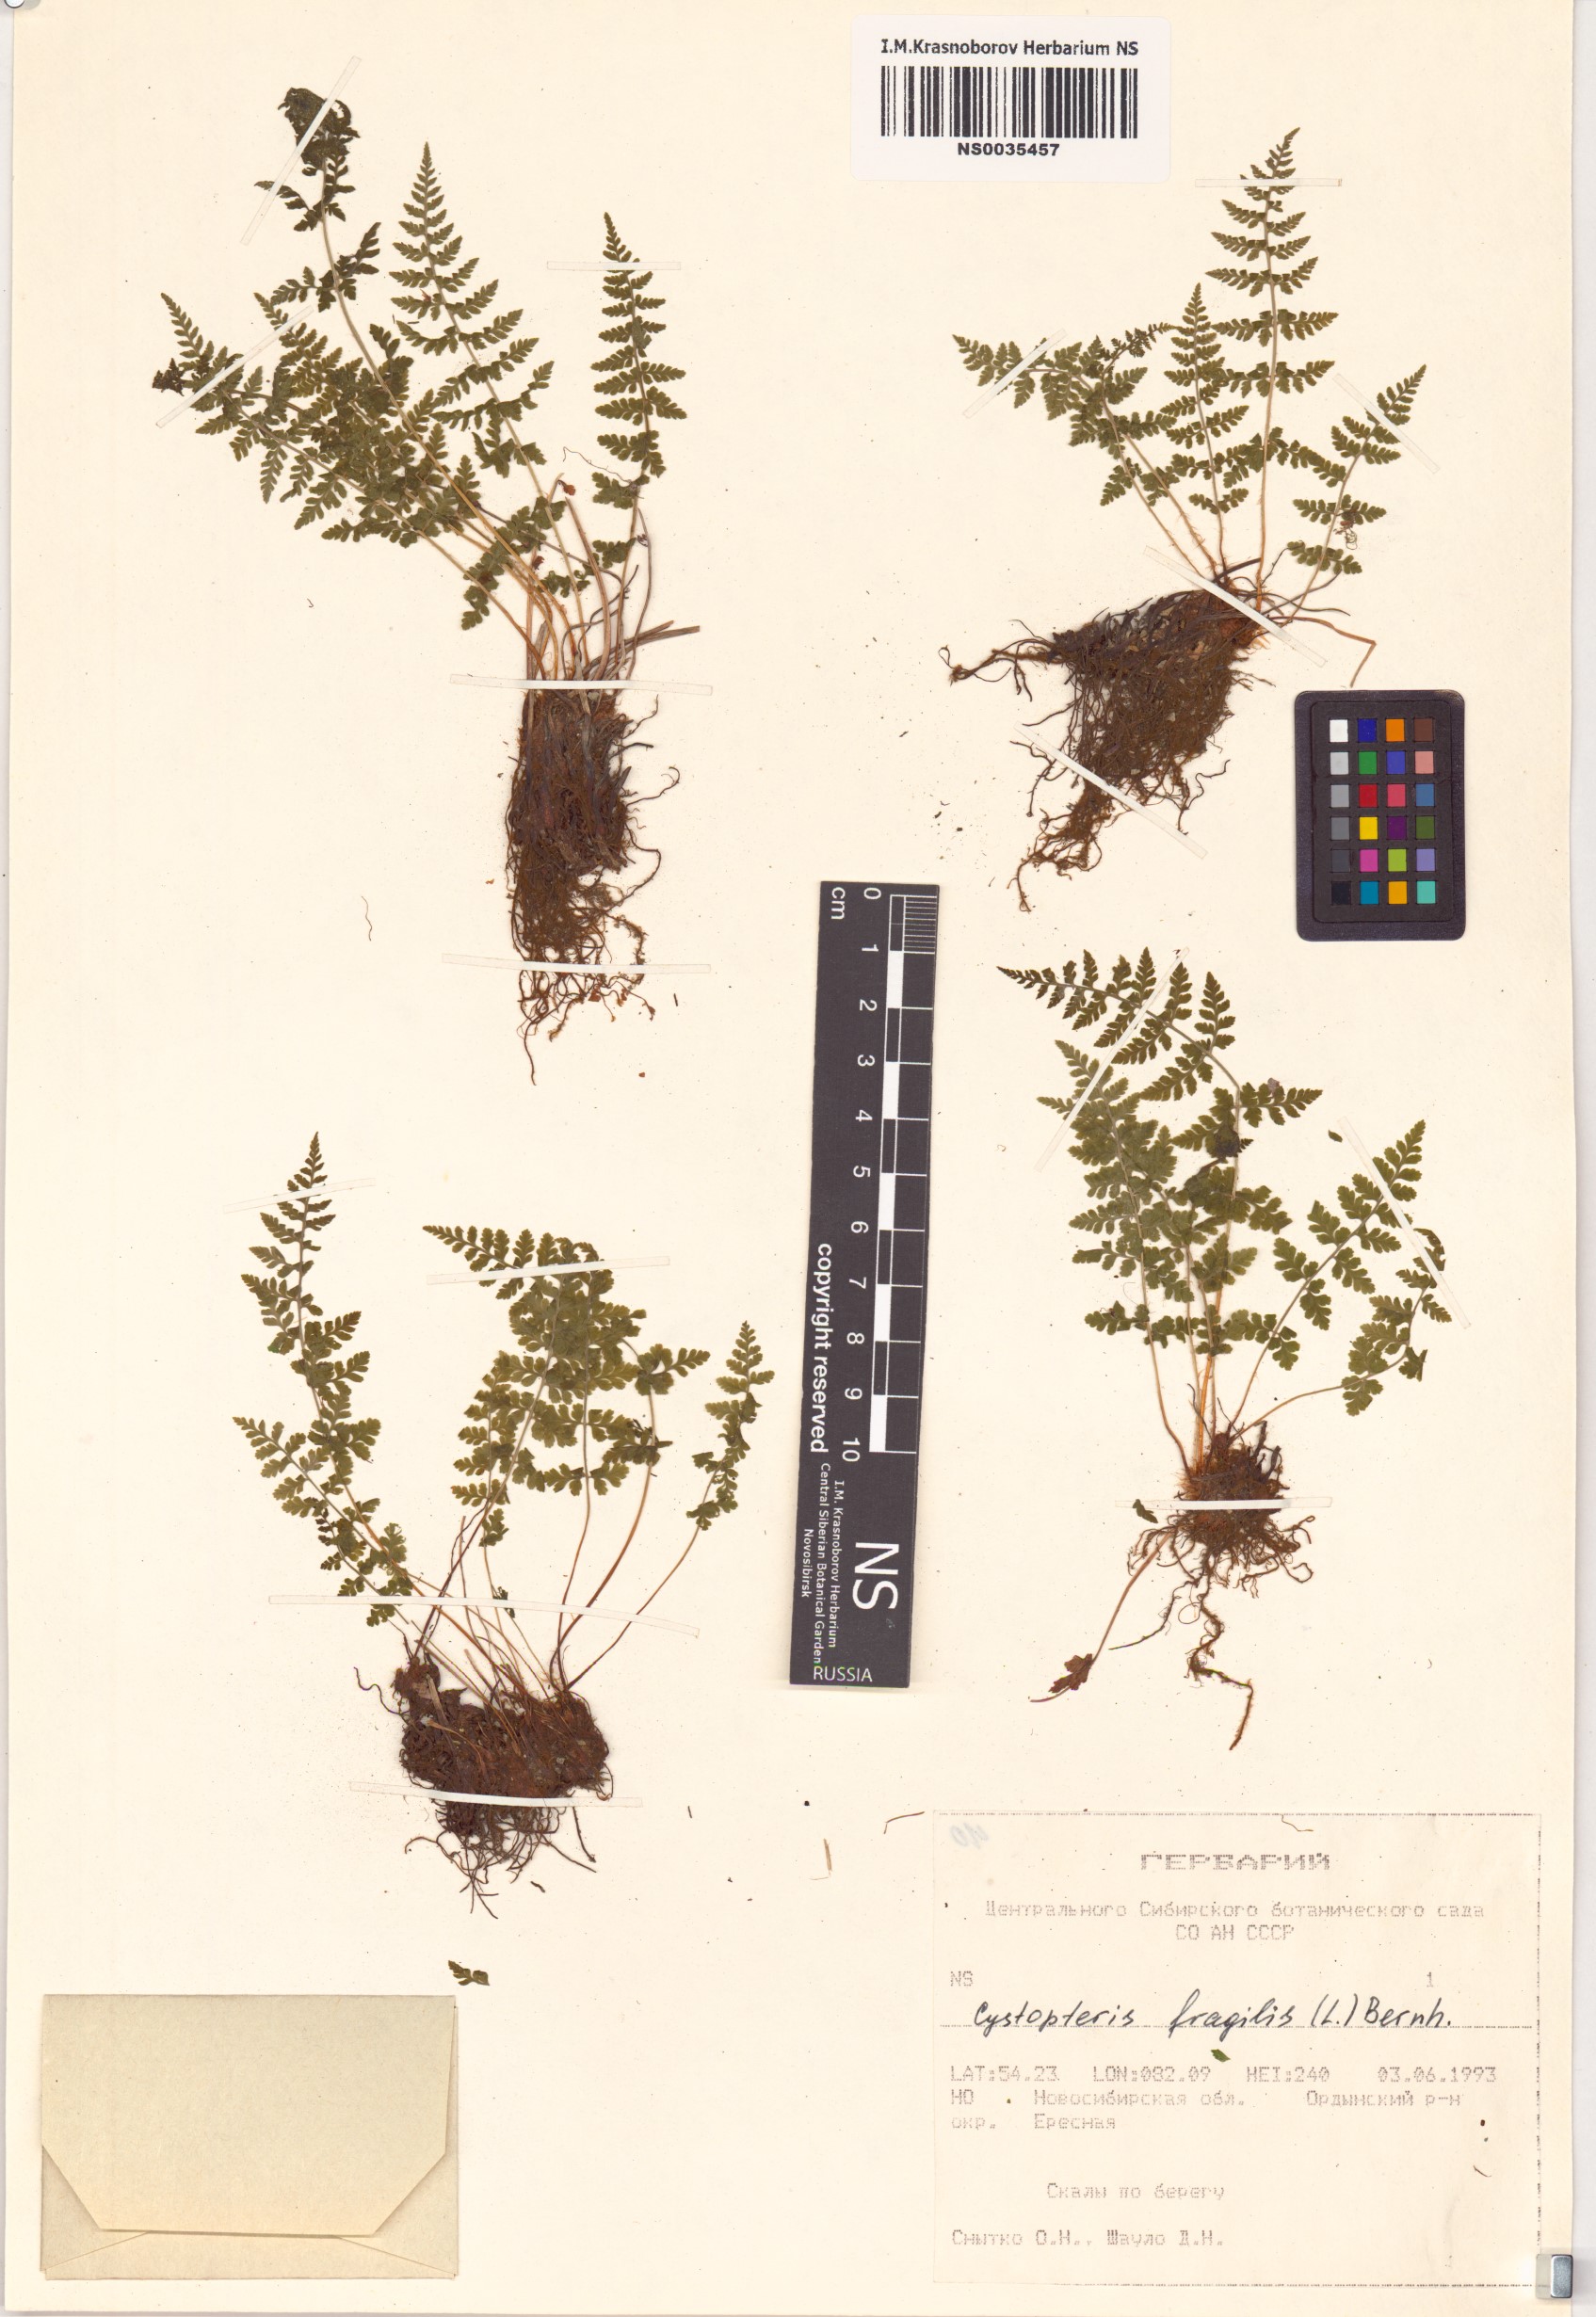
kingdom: Plantae
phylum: Tracheophyta
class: Polypodiopsida
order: Polypodiales
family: Cystopteridaceae
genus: Cystopteris
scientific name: Cystopteris fragilis
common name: Brittle bladder fern
